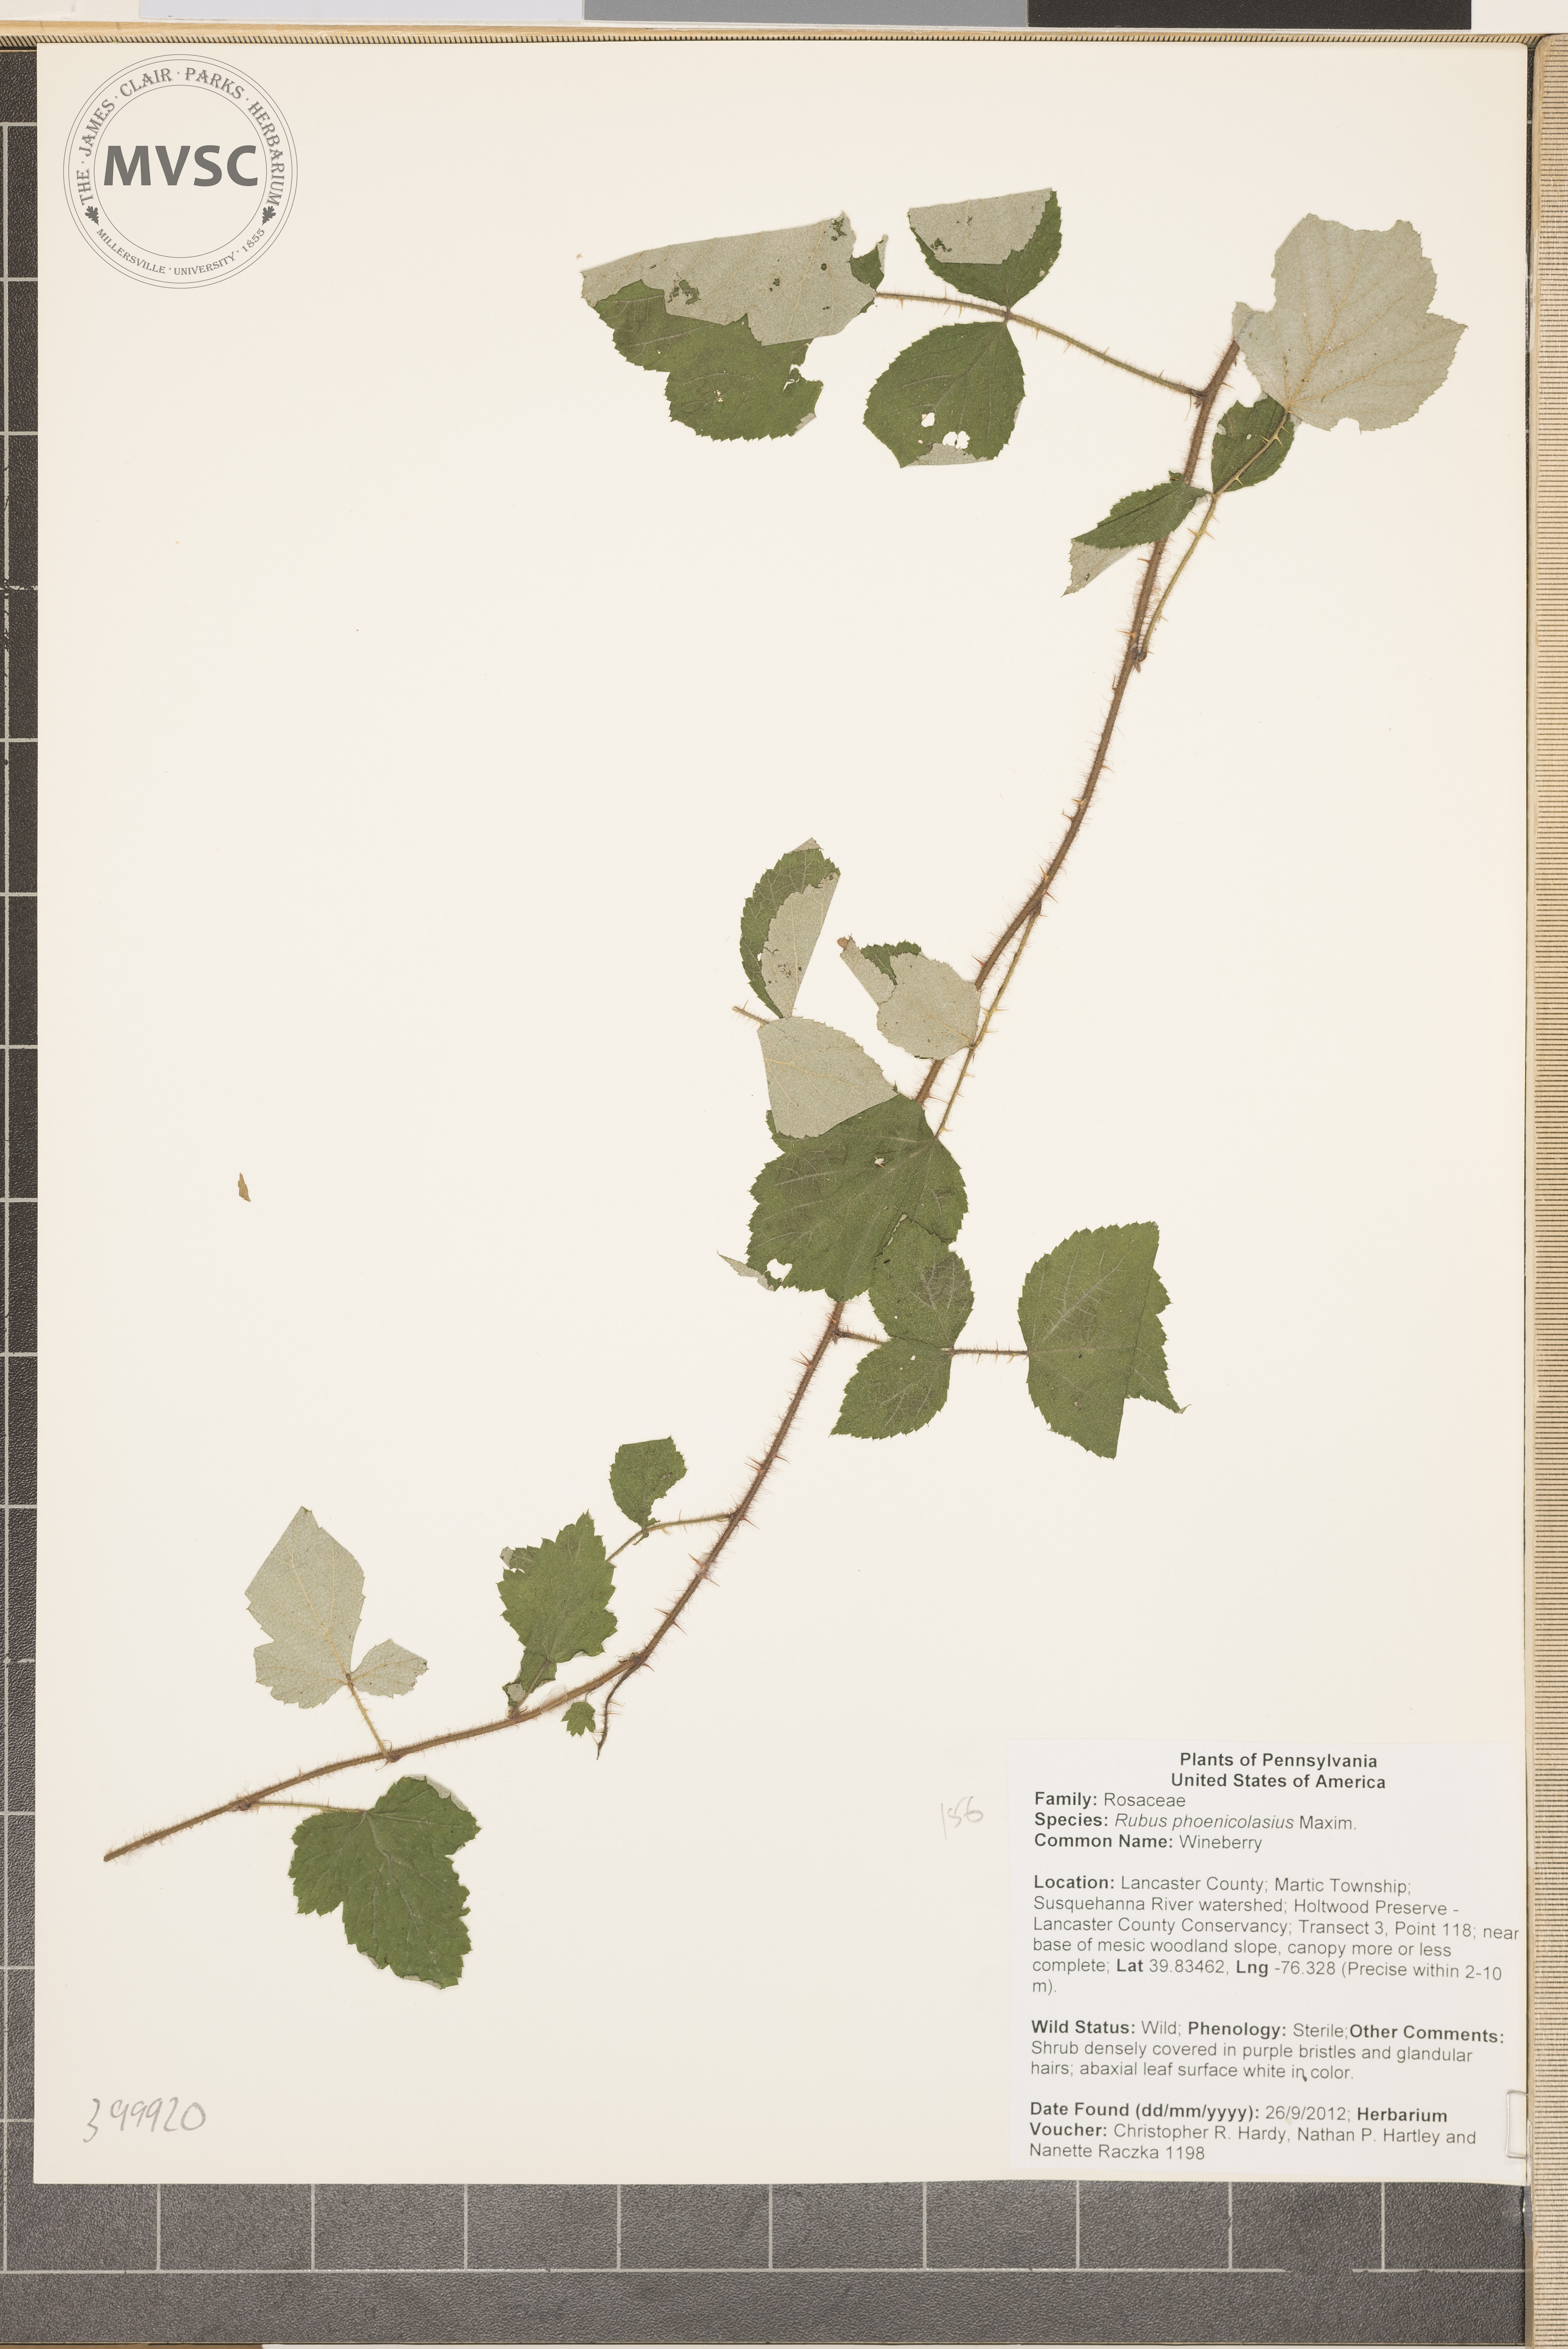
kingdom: Plantae
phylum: Tracheophyta
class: Magnoliopsida
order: Rosales
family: Rosaceae
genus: Rubus
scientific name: Rubus phoenicolasius
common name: Wineberry
